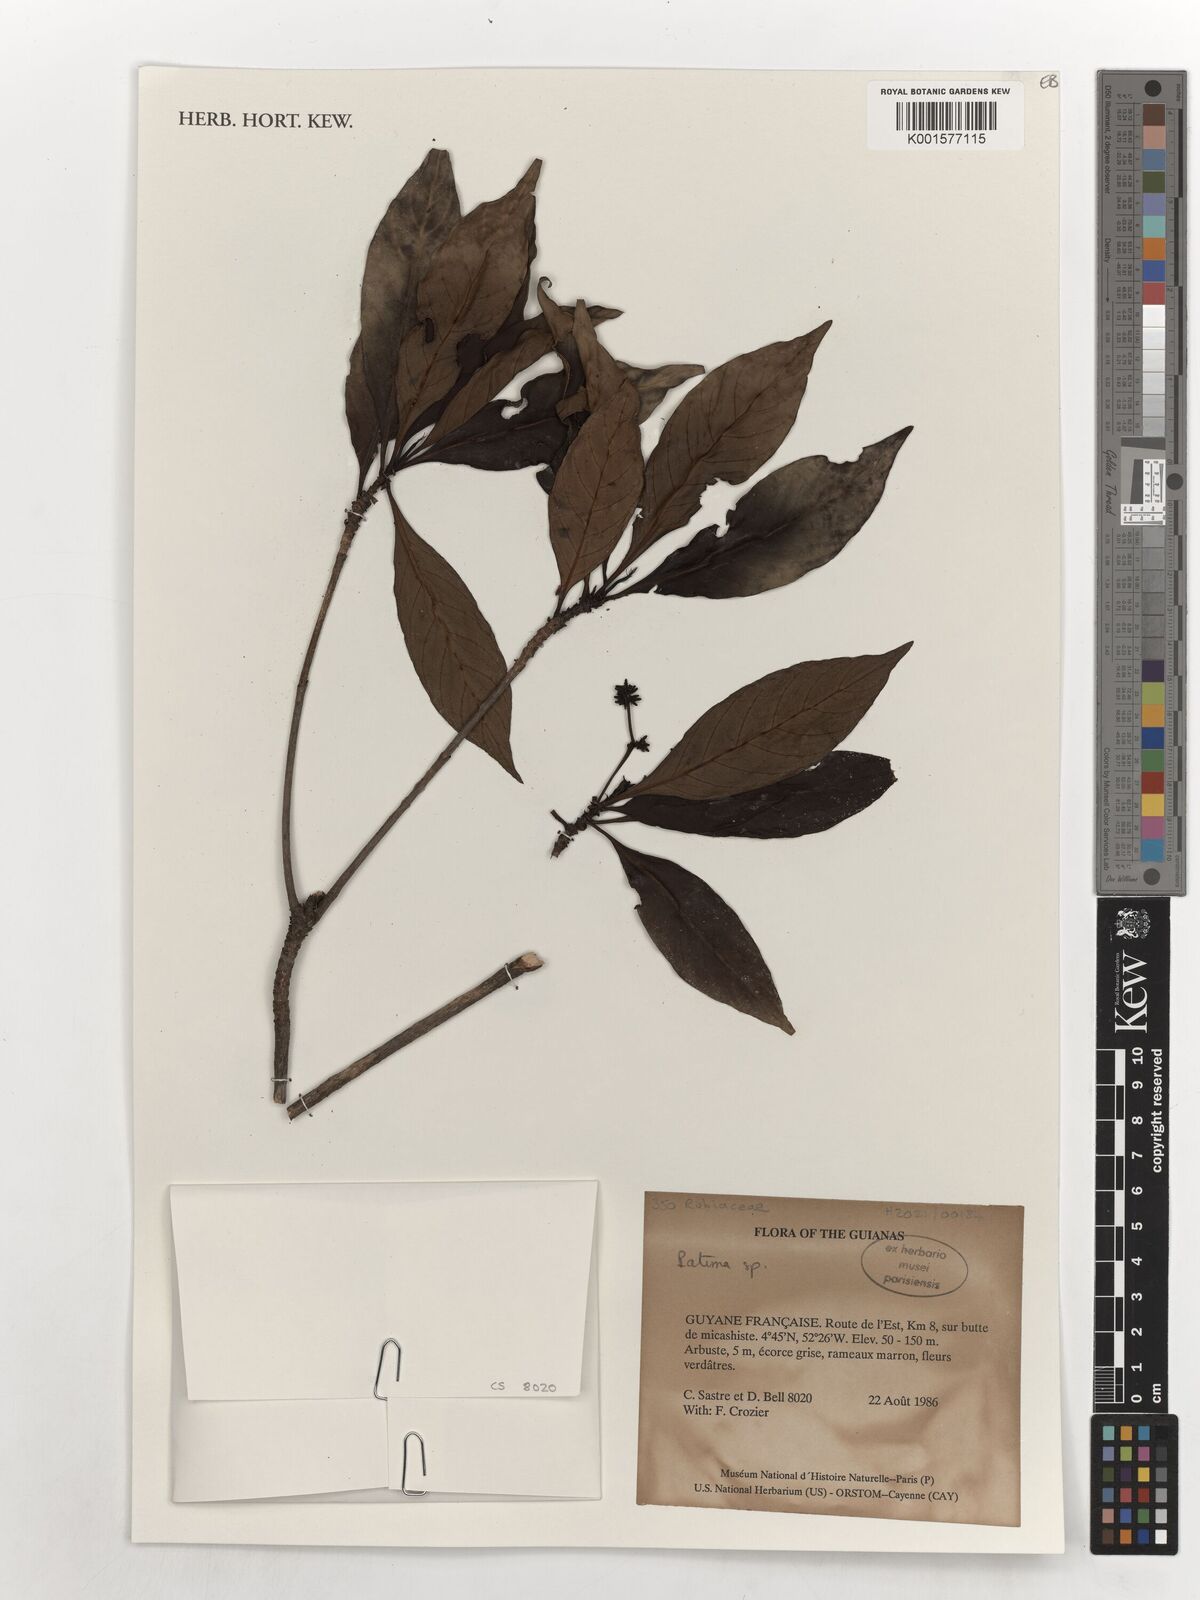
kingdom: Plantae
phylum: Tracheophyta
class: Magnoliopsida
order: Gentianales
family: Rubiaceae
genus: Patima
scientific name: Patima
